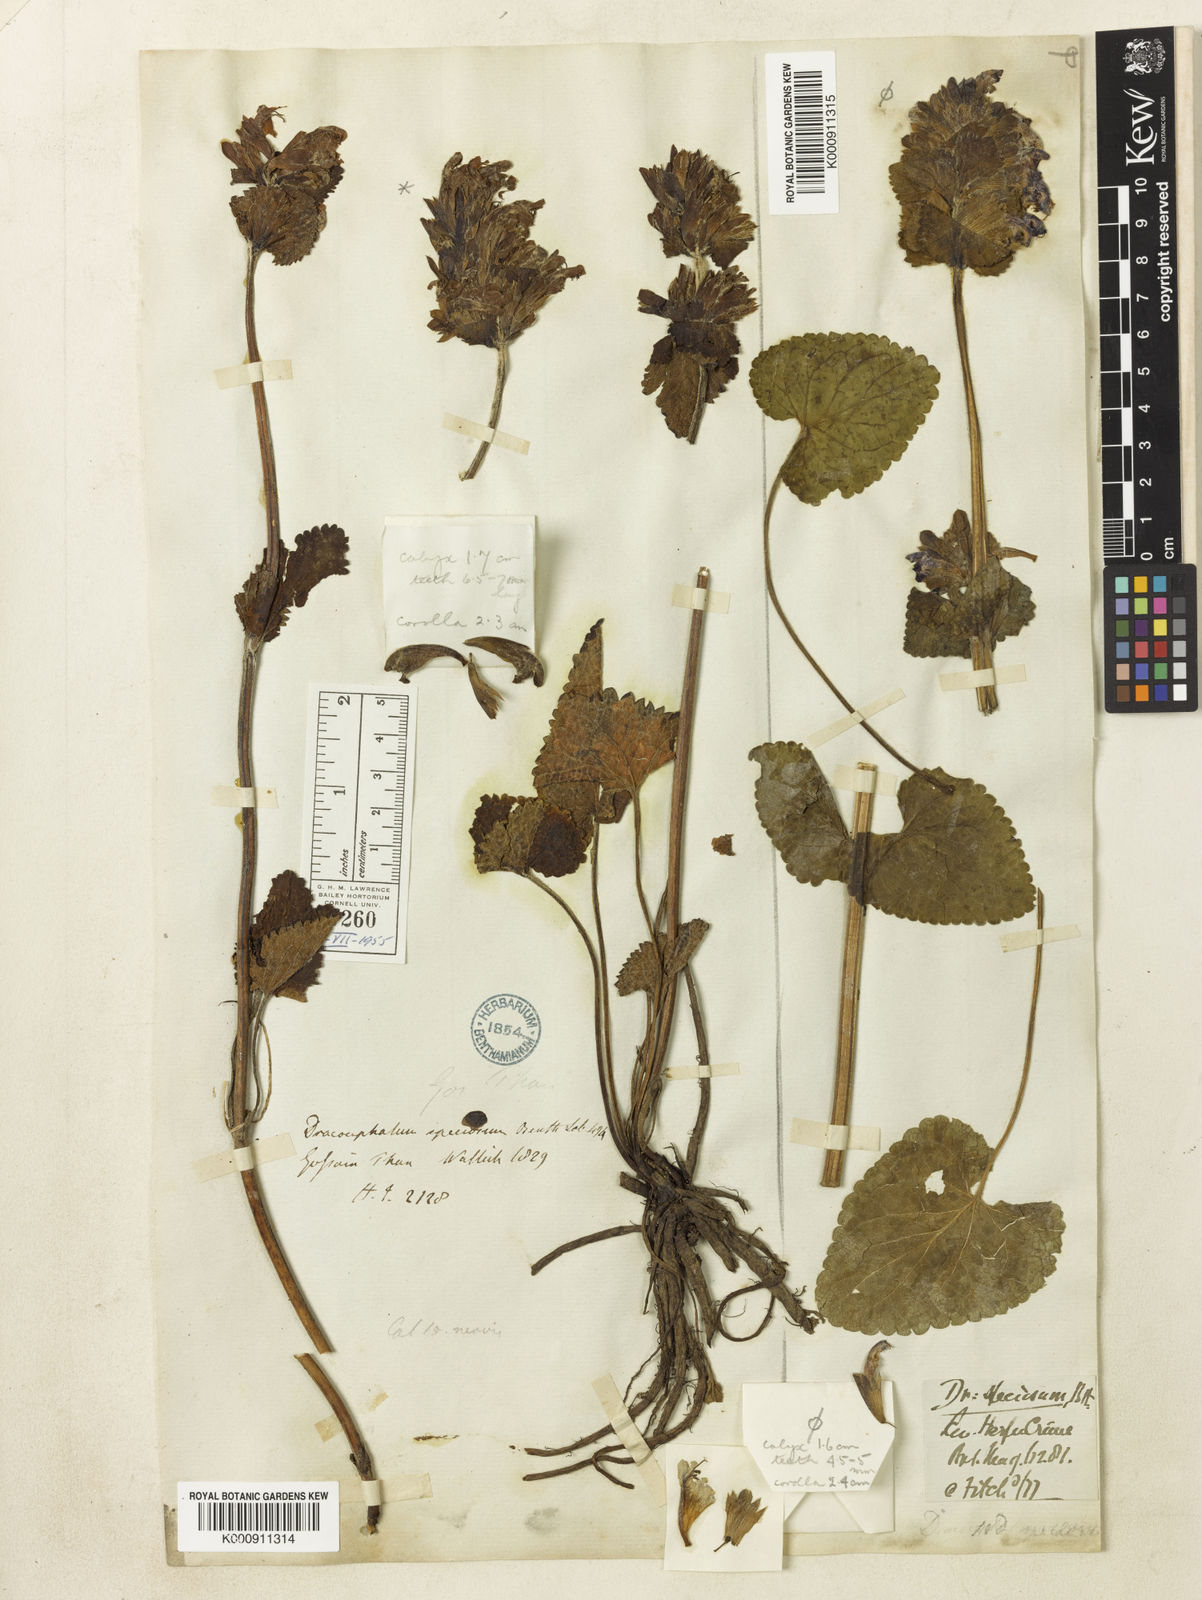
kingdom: Plantae
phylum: Tracheophyta
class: Magnoliopsida
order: Lamiales
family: Lamiaceae
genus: Dracocephalum
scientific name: Dracocephalum wallichii
